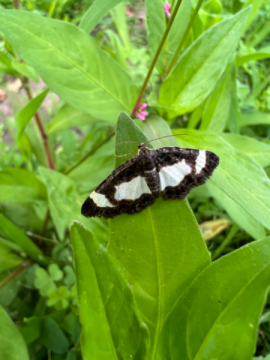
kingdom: Animalia
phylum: Arthropoda
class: Insecta
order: Lepidoptera
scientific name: Lepidoptera
